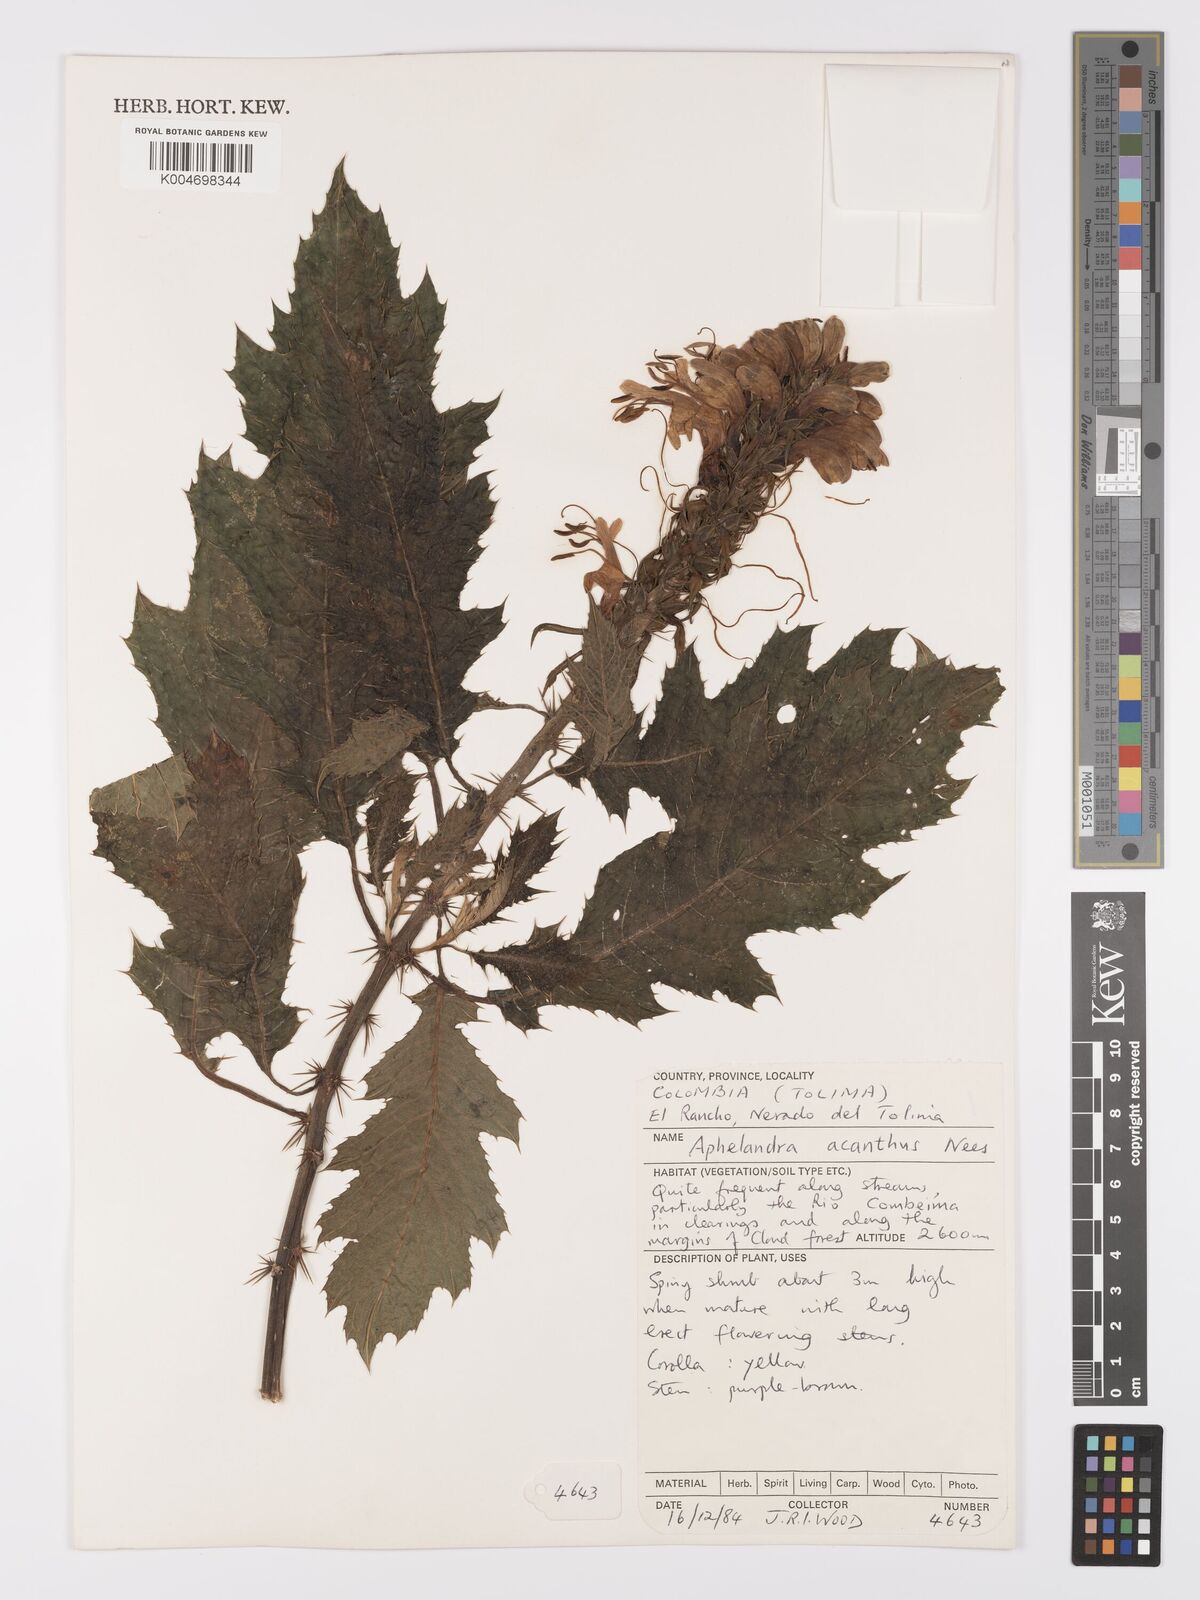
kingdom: Plantae
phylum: Tracheophyta
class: Magnoliopsida
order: Lamiales
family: Acanthaceae
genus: Aphelandra
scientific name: Aphelandra acanthus
